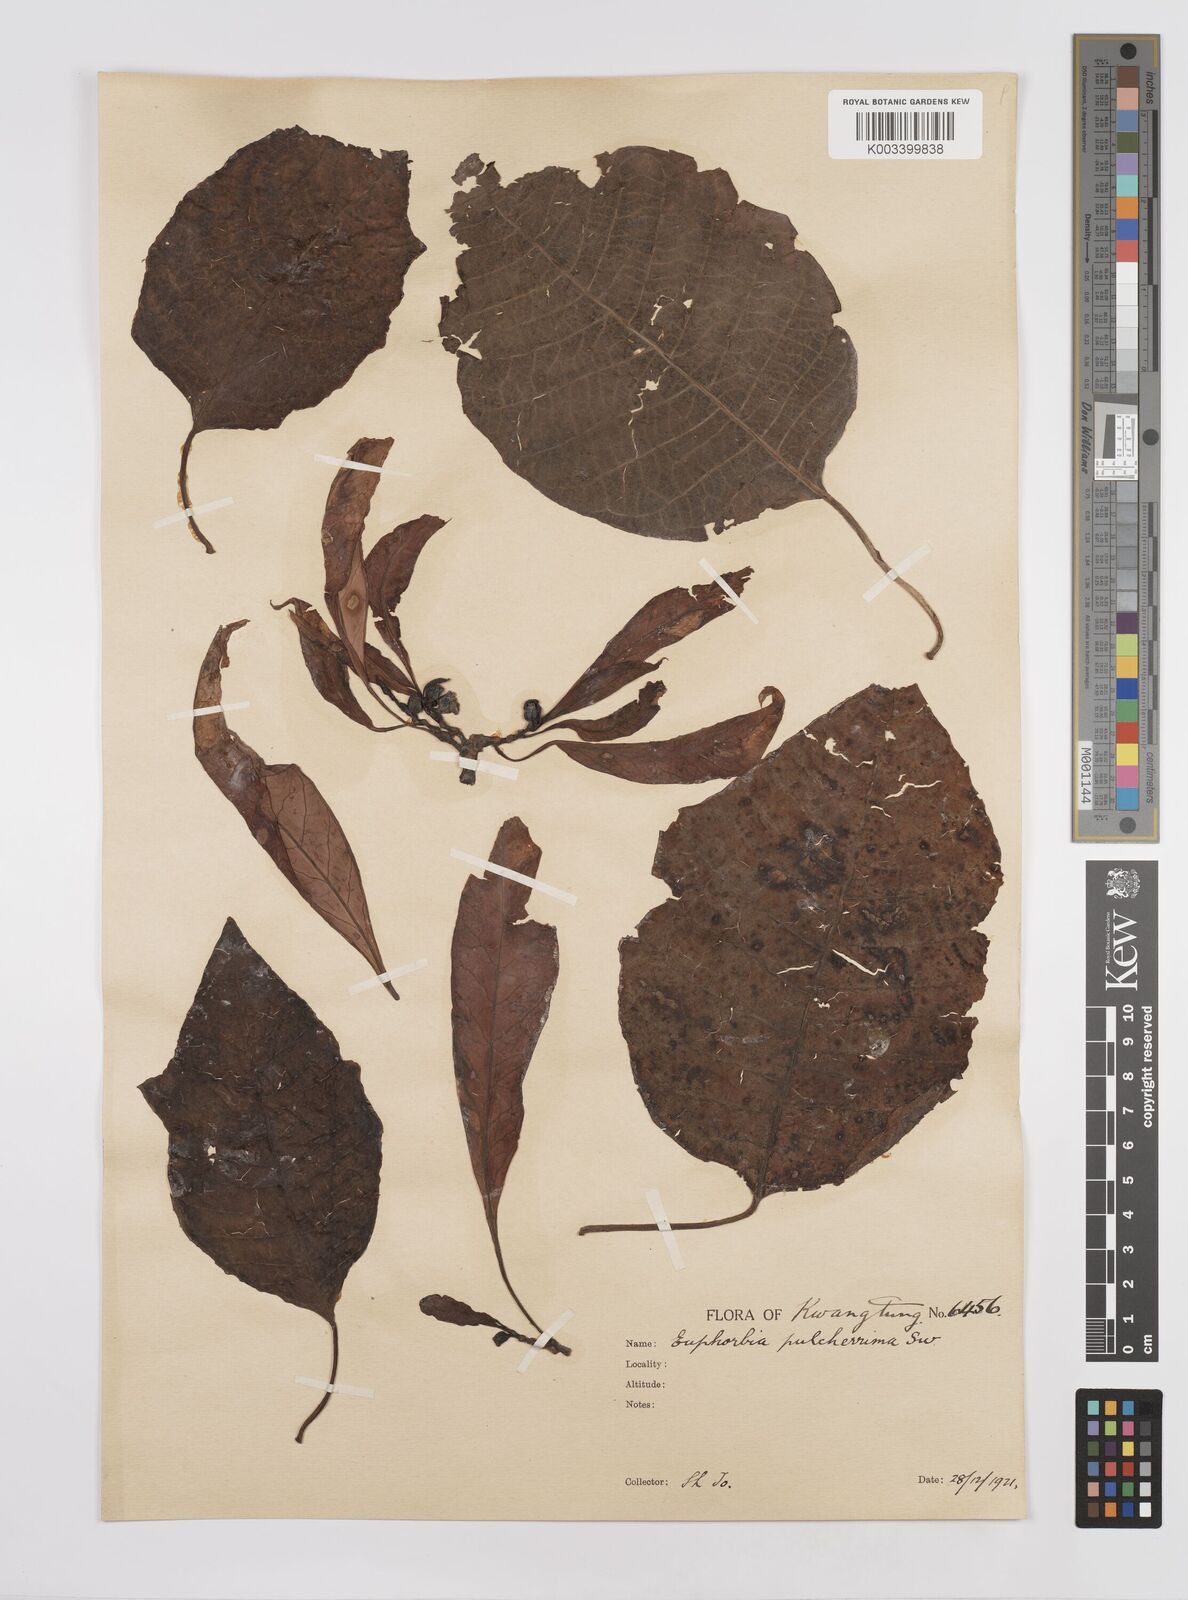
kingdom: Plantae
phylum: Tracheophyta
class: Magnoliopsida
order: Malpighiales
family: Euphorbiaceae
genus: Euphorbia
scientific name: Euphorbia pulcherrima
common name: Christmas-flower
